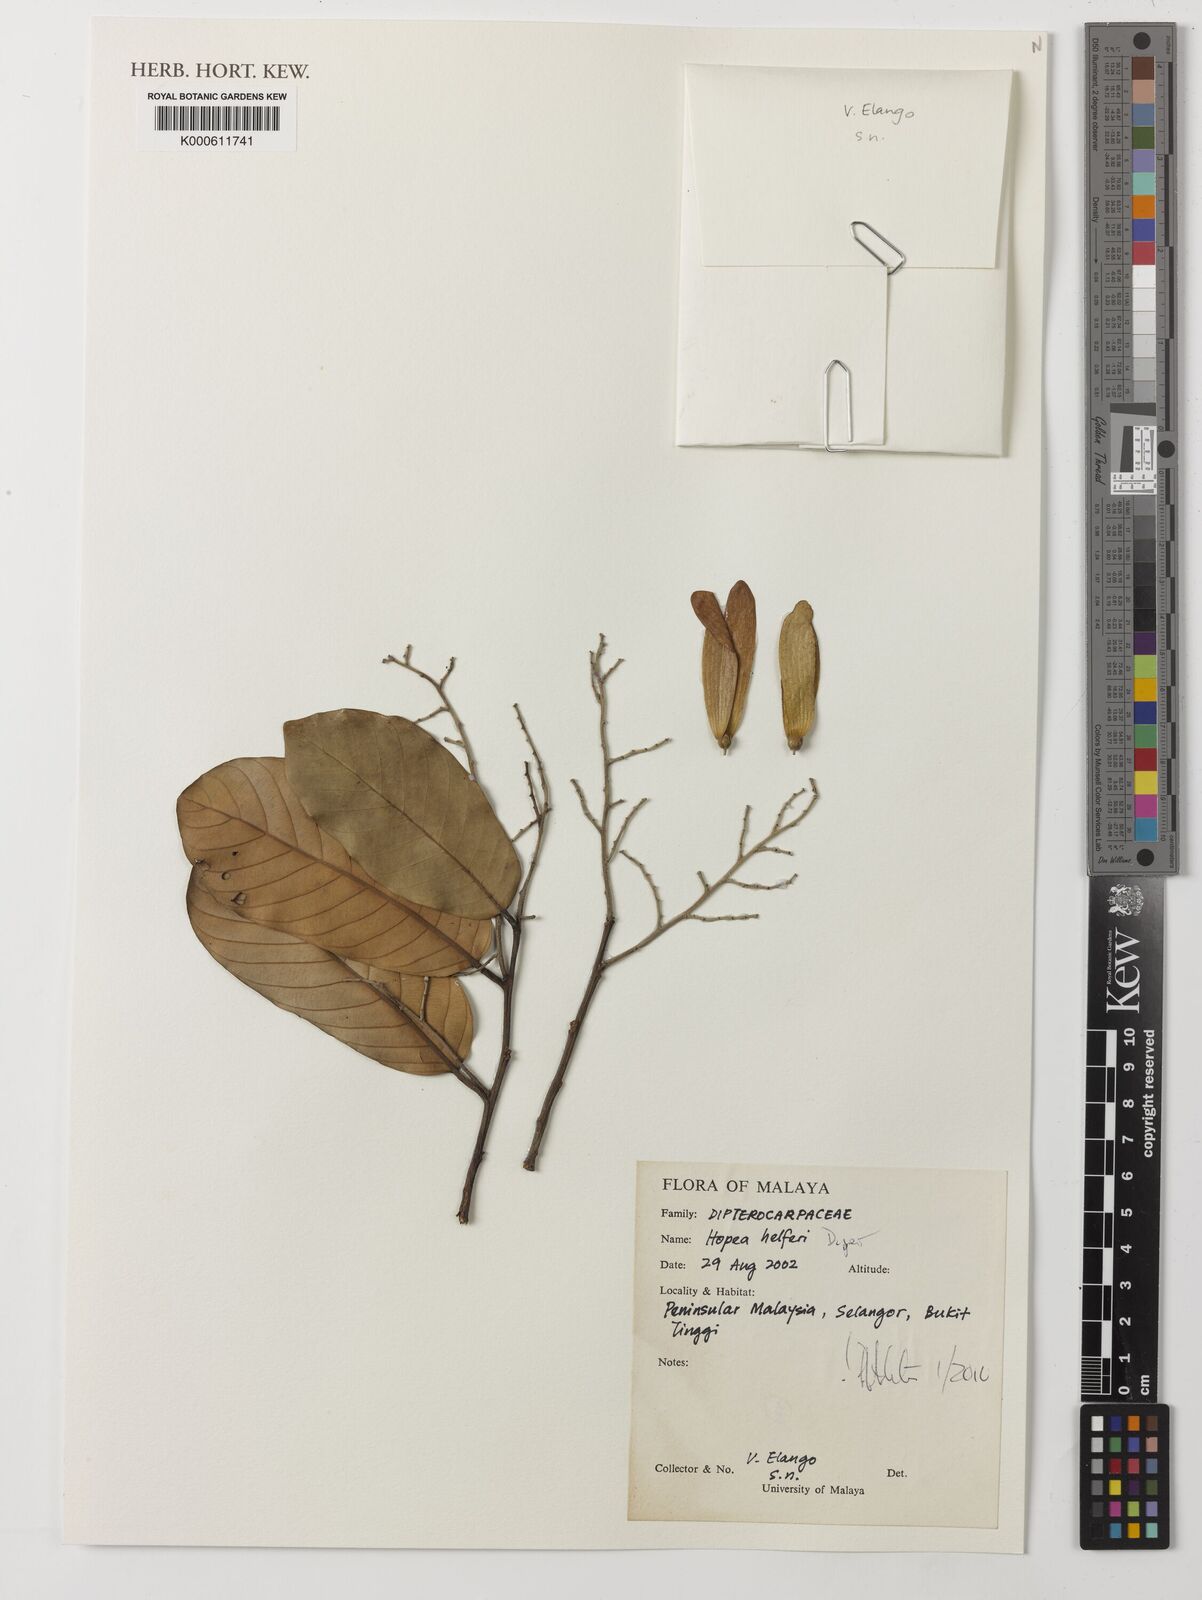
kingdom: Plantae
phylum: Tracheophyta
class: Magnoliopsida
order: Malvales
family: Dipterocarpaceae
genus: Hopea
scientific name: Hopea helferi
